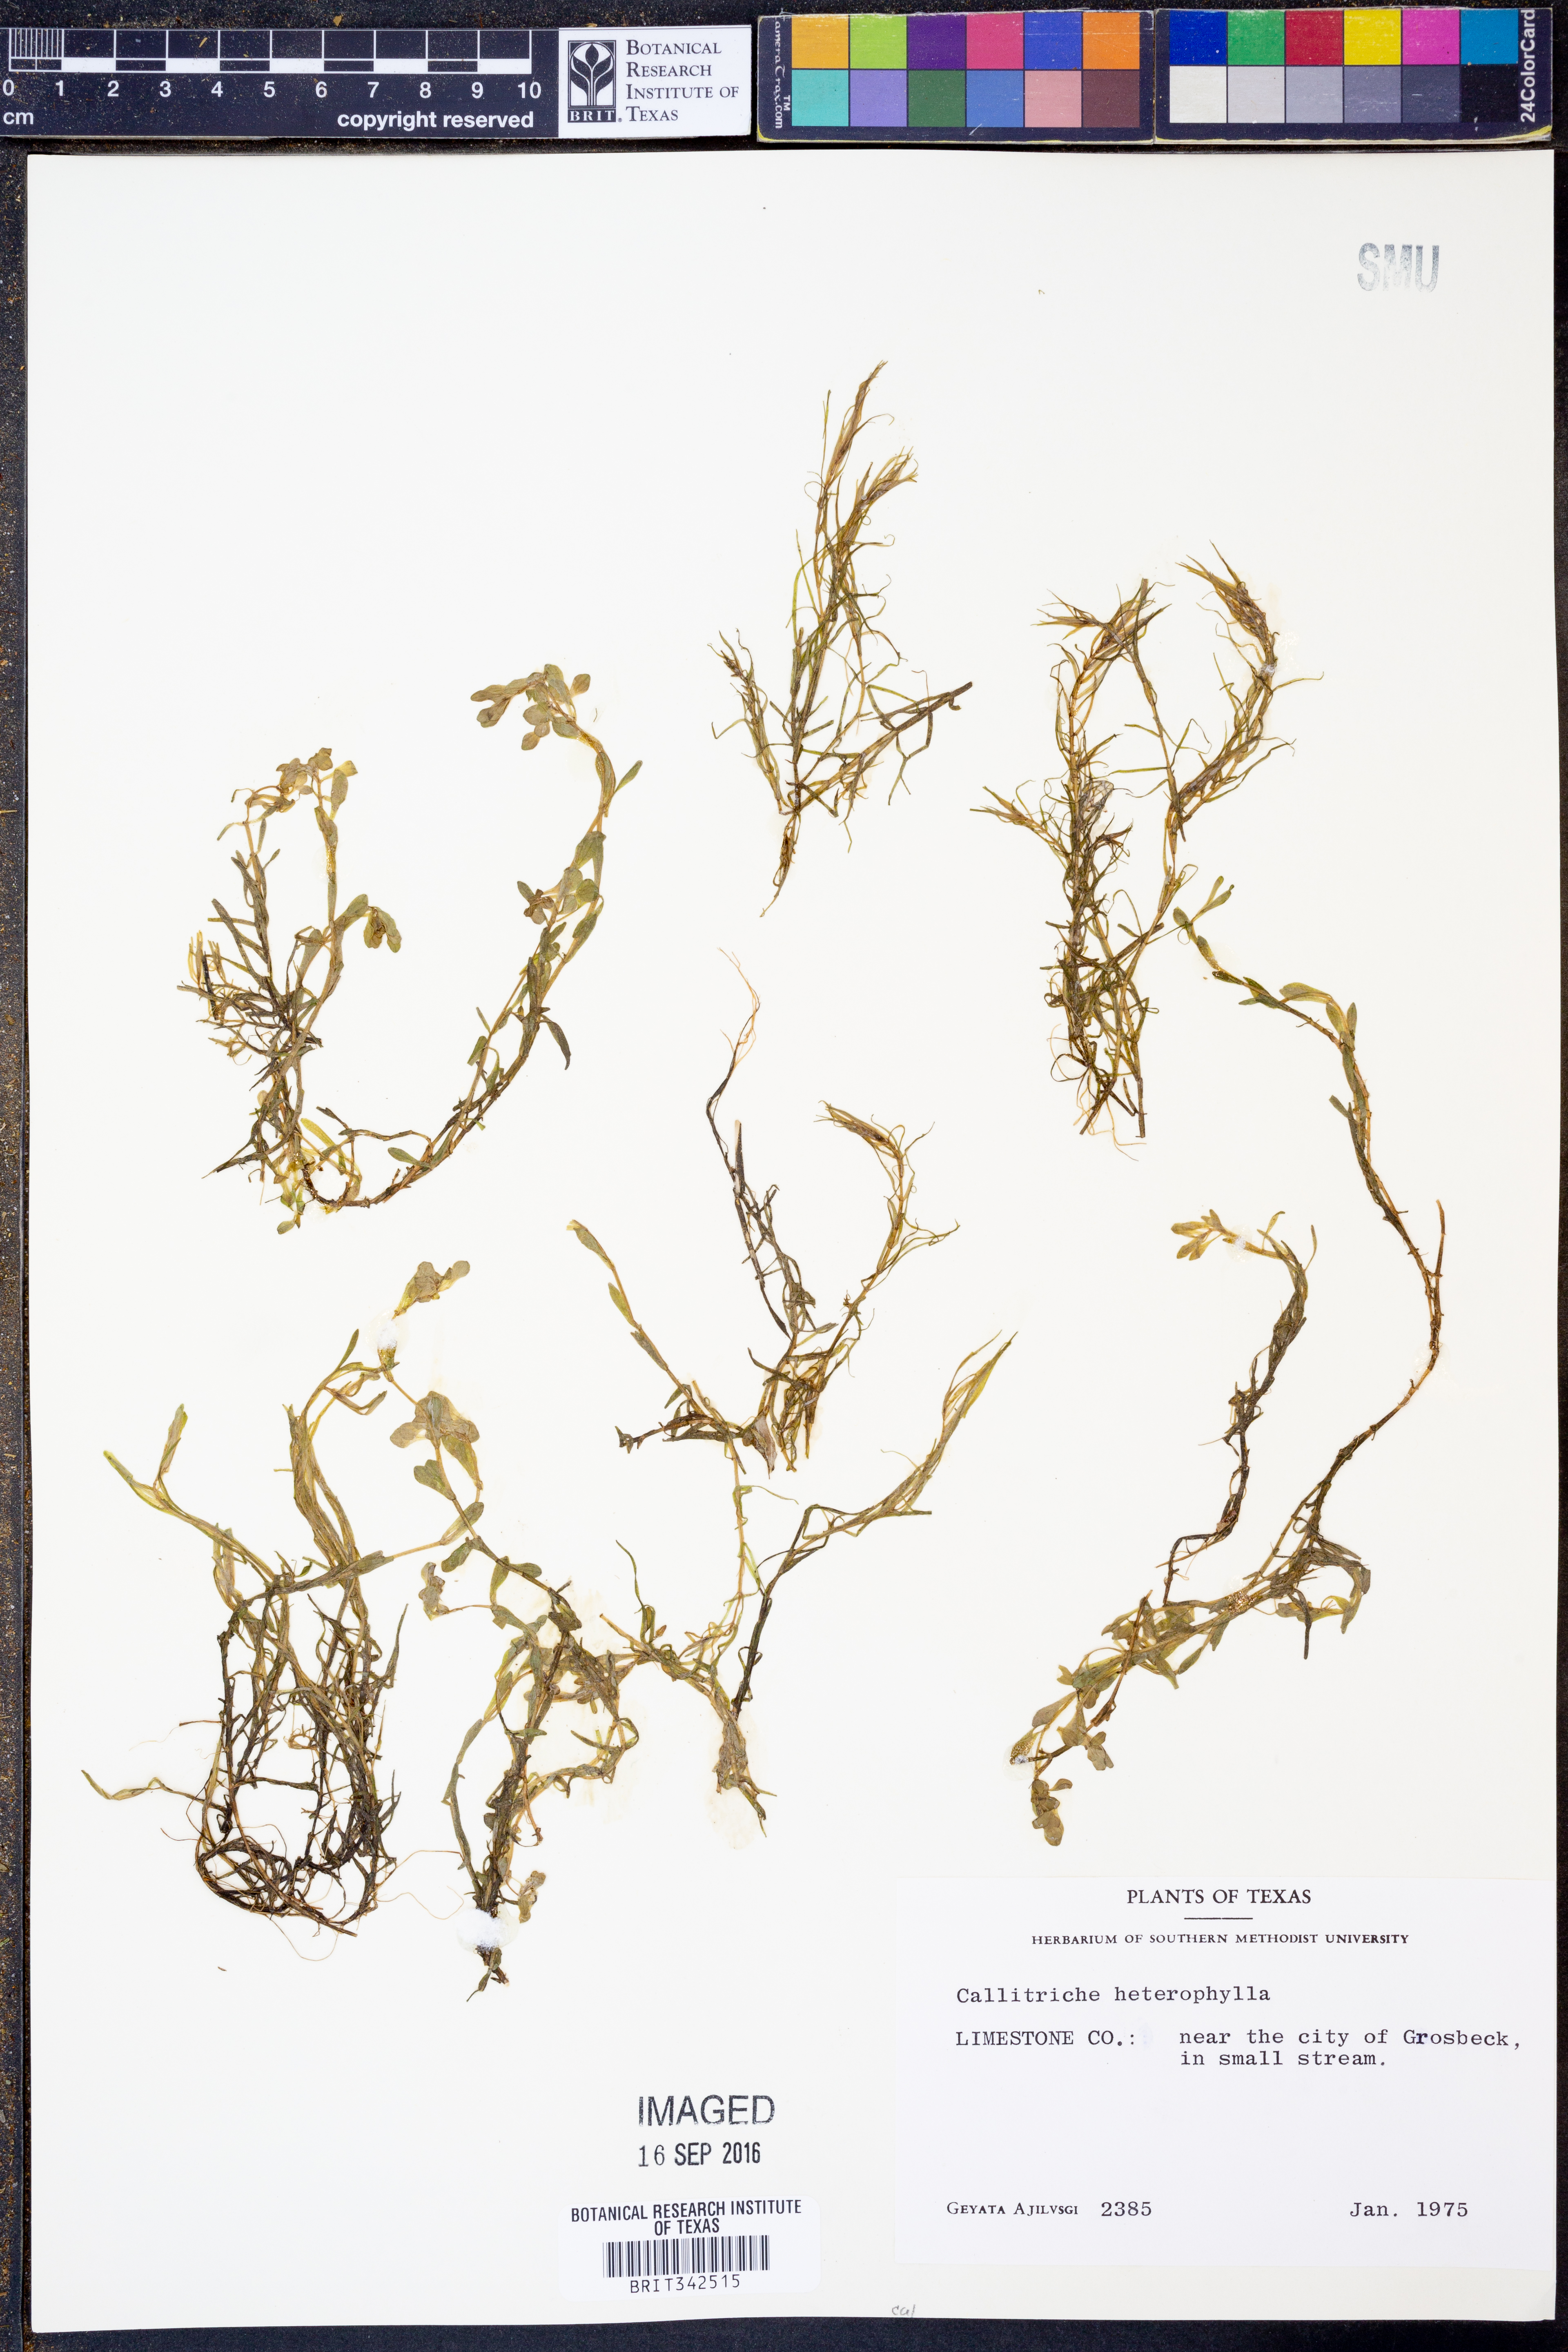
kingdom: Plantae
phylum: Tracheophyta
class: Magnoliopsida
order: Lamiales
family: Plantaginaceae
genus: Callitriche
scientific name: Callitriche heterophylla
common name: Two-headed water-starwort
